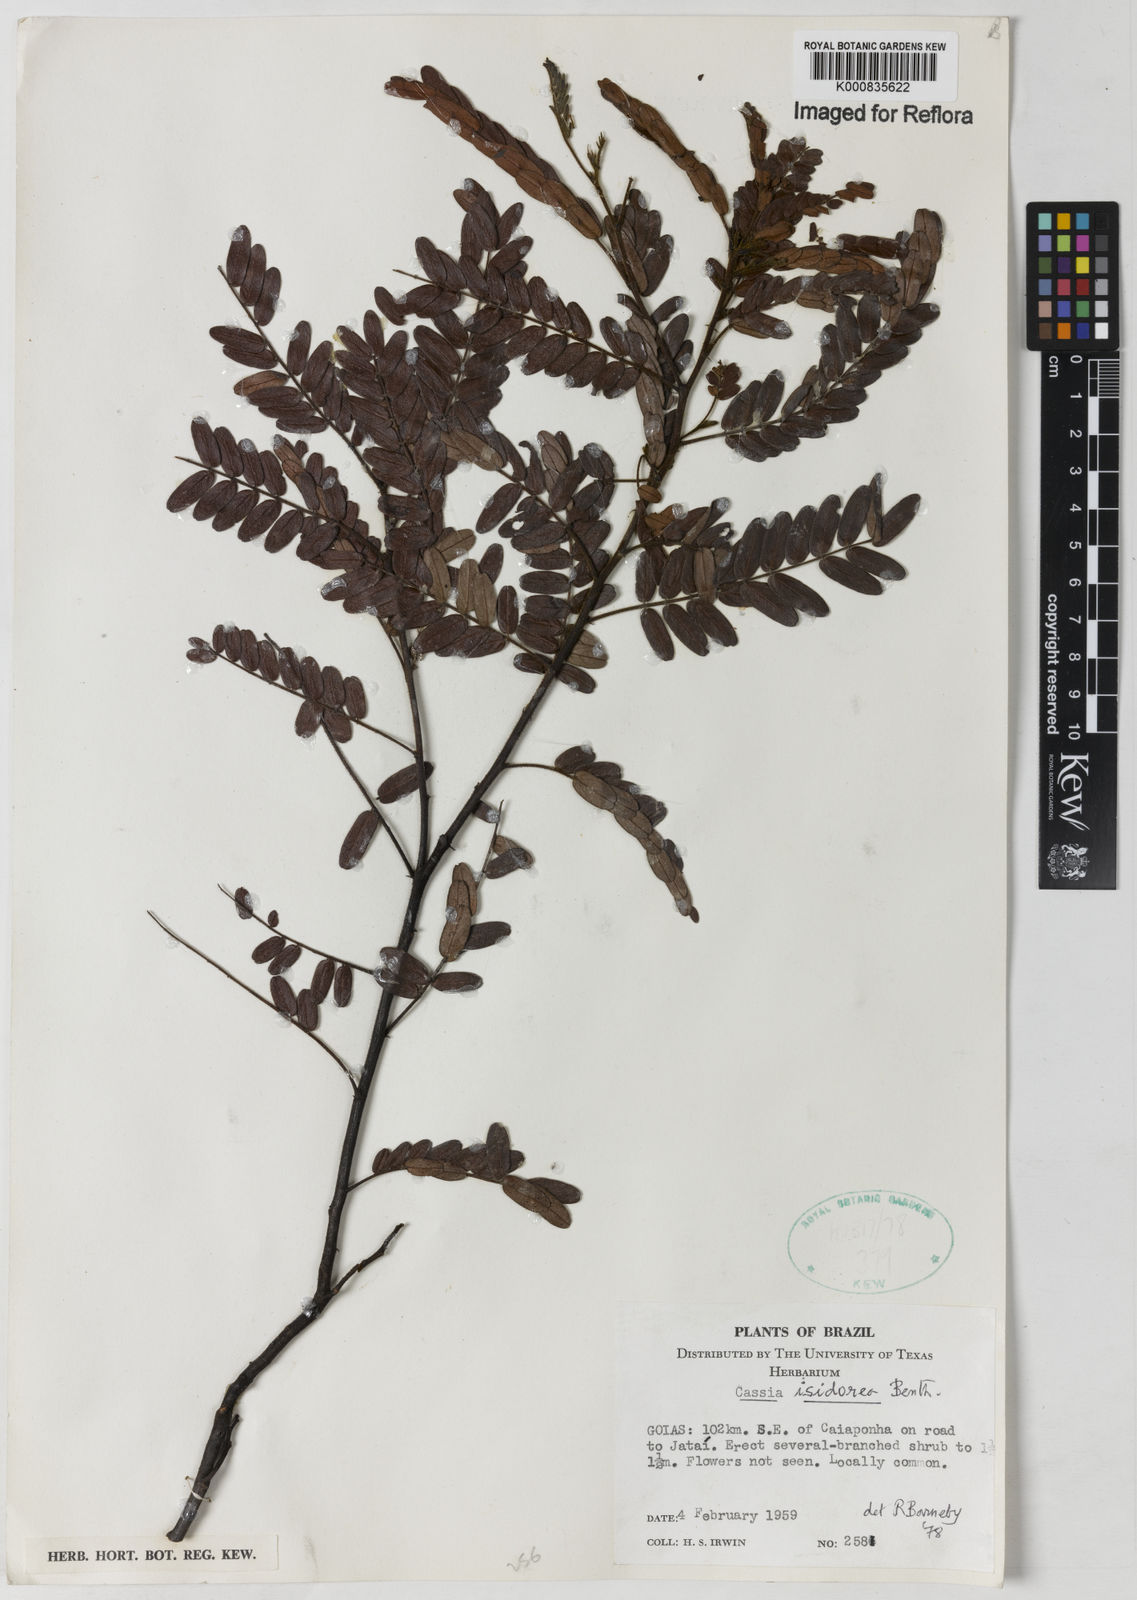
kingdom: Plantae
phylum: Tracheophyta
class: Magnoliopsida
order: Fabales
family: Fabaceae
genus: Chamaecrista
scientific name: Chamaecrista isidorea
